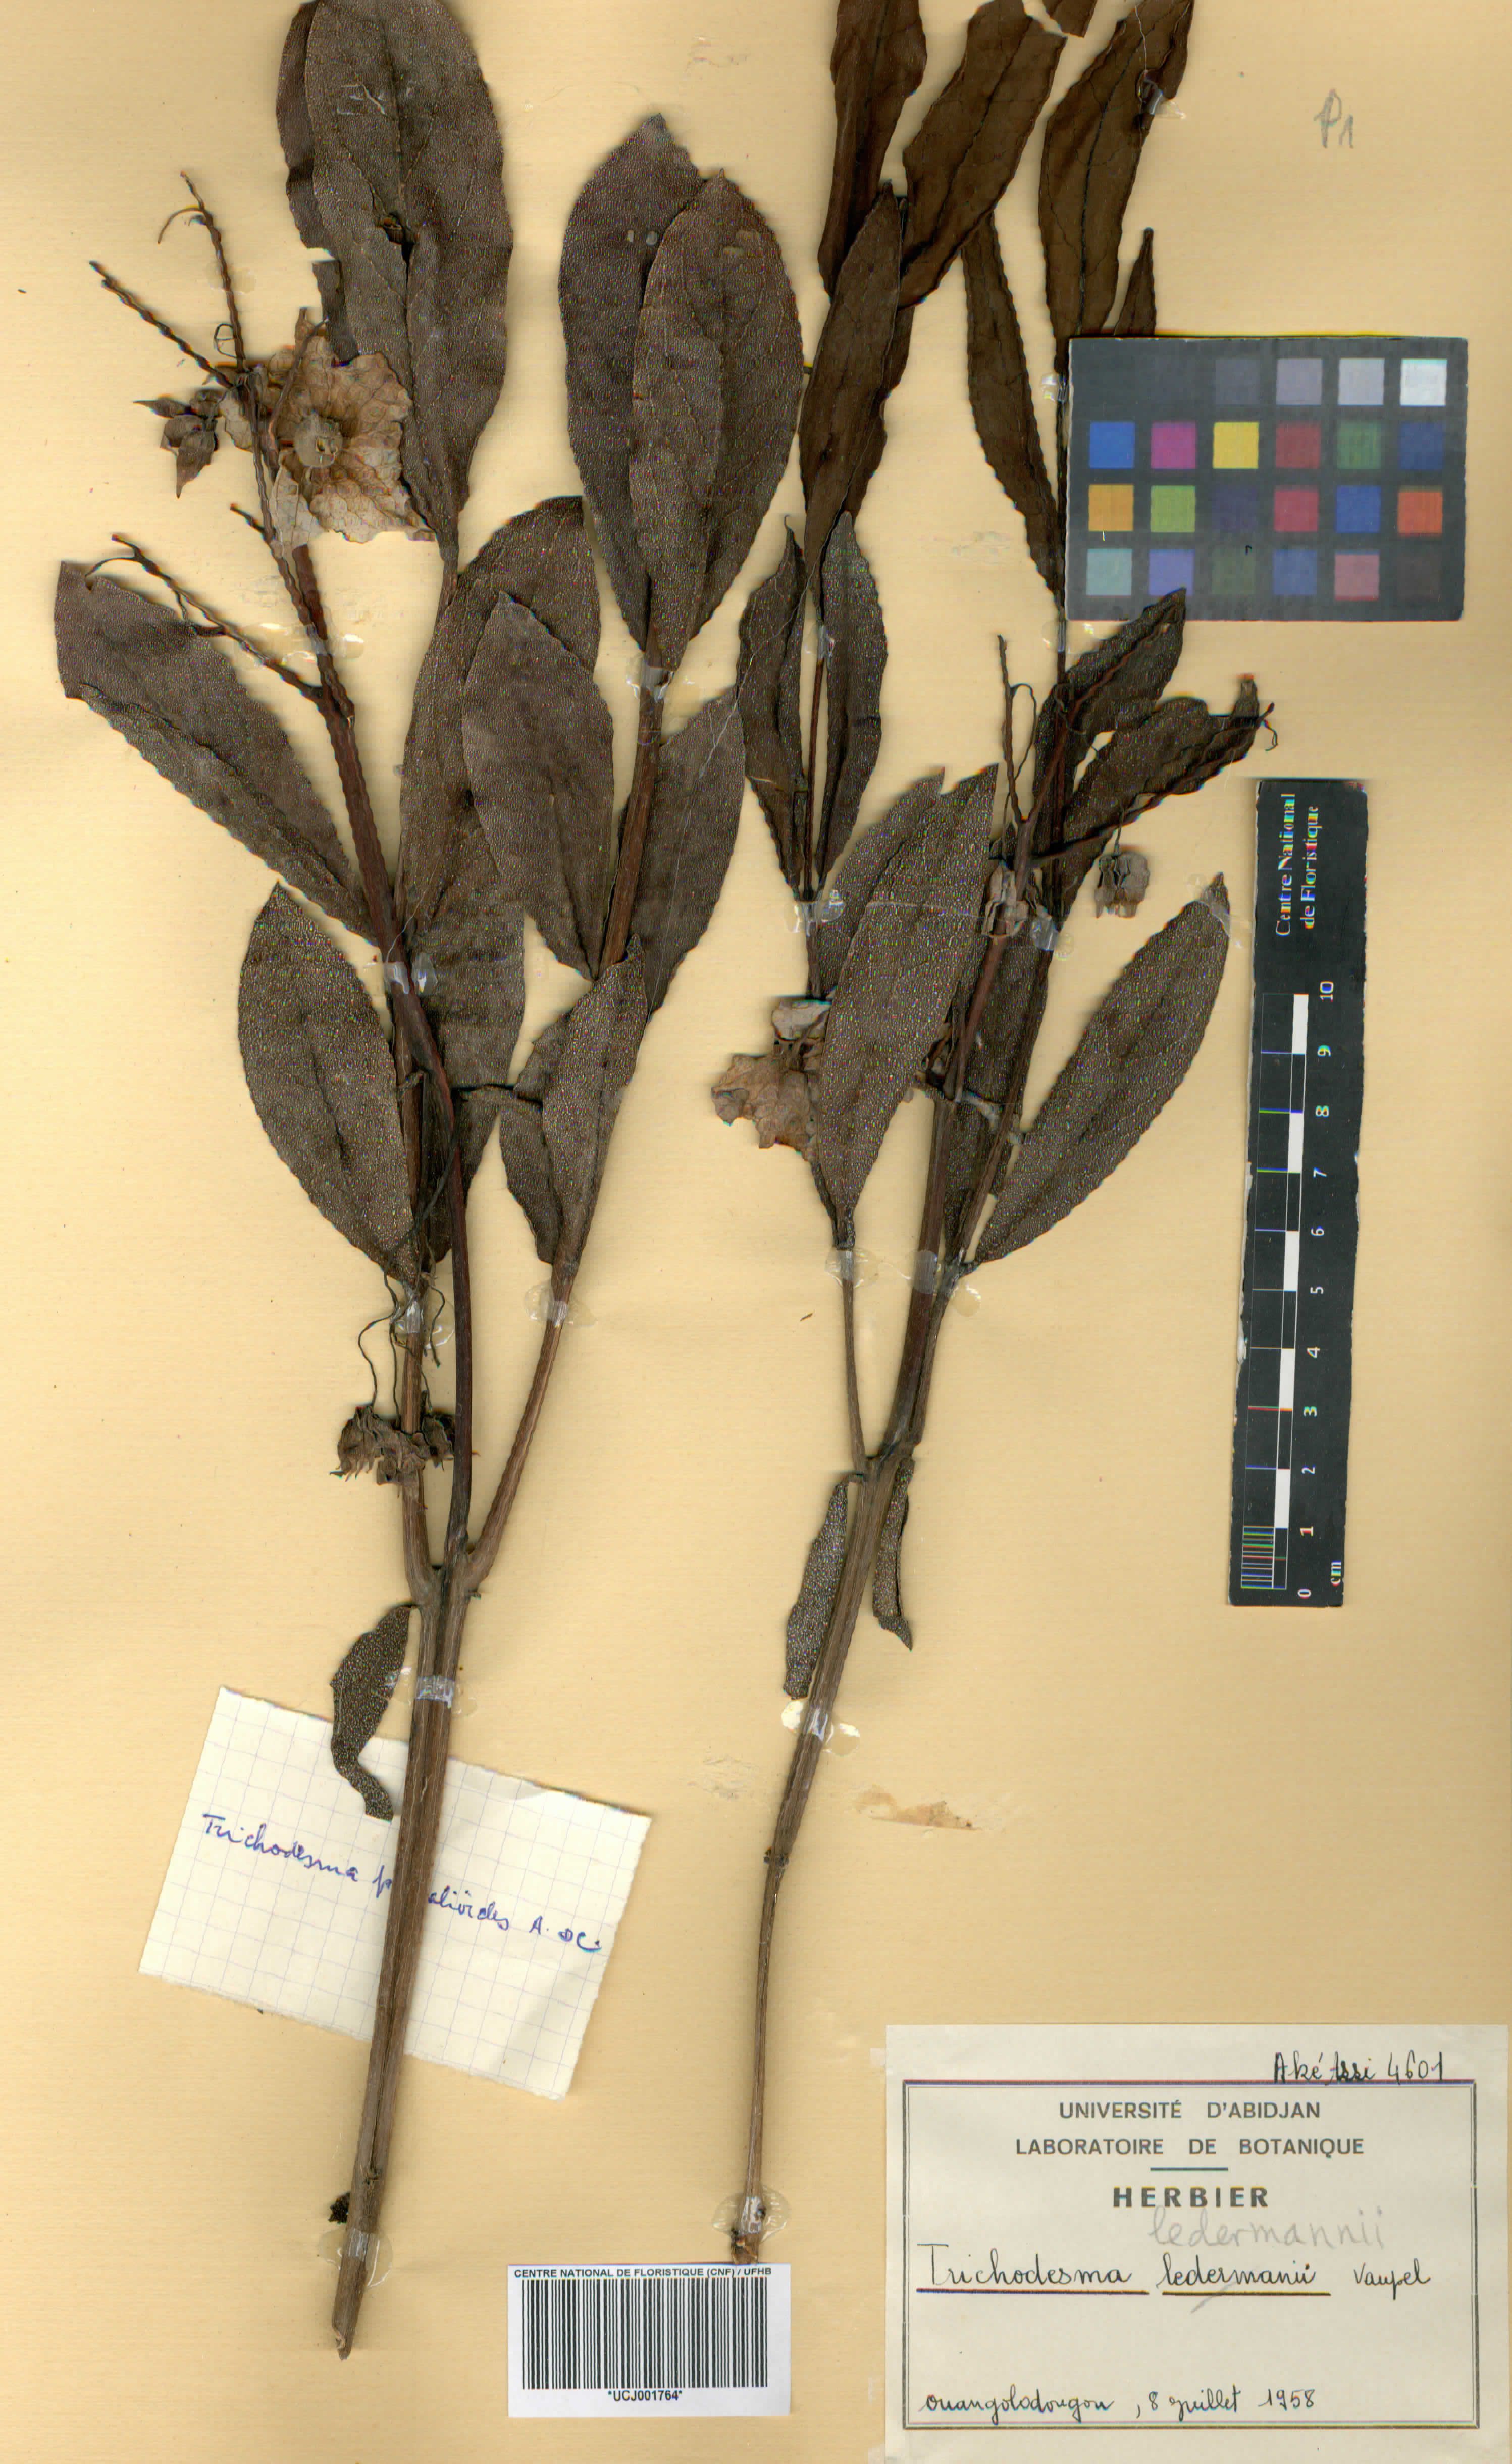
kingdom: Plantae
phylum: Tracheophyta
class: Magnoliopsida
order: Boraginales
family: Boraginaceae
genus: Trichodesma
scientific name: Trichodesma ambacense
